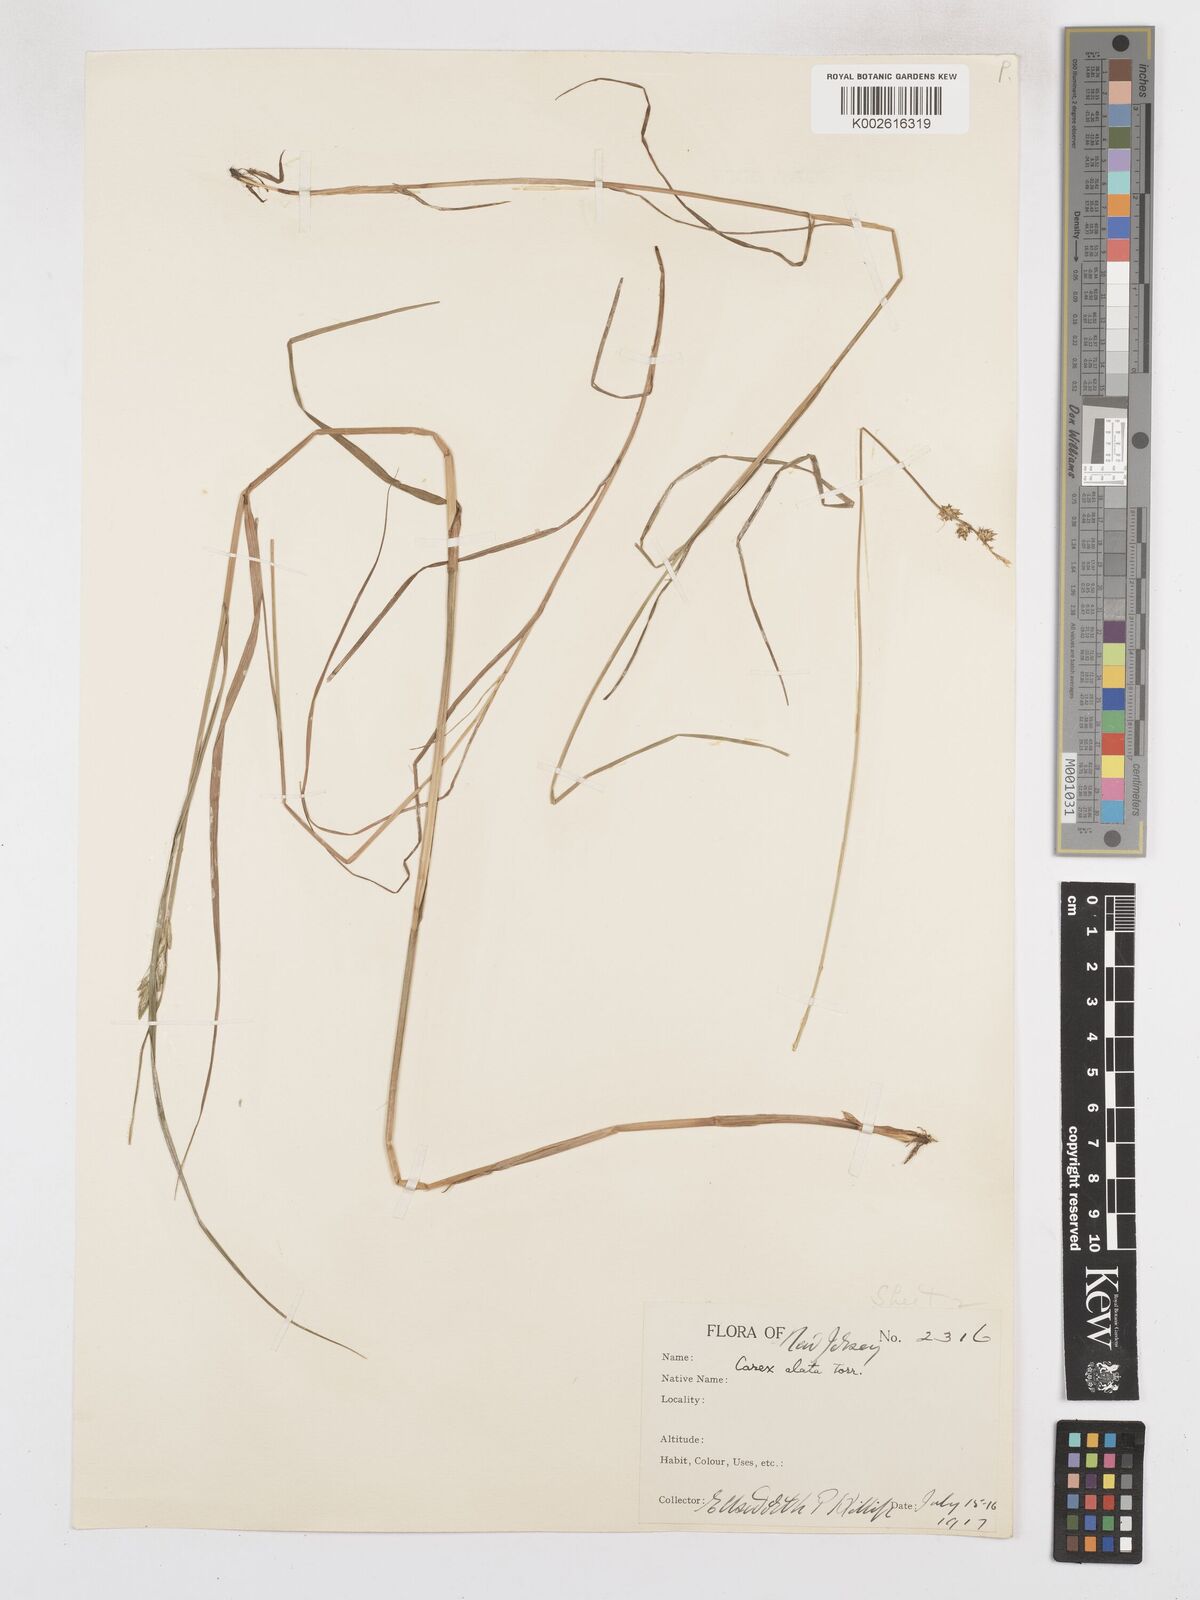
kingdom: Plantae
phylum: Tracheophyta
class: Liliopsida
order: Poales
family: Cyperaceae
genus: Carex
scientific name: Carex alata
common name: Broad-winged sedge
